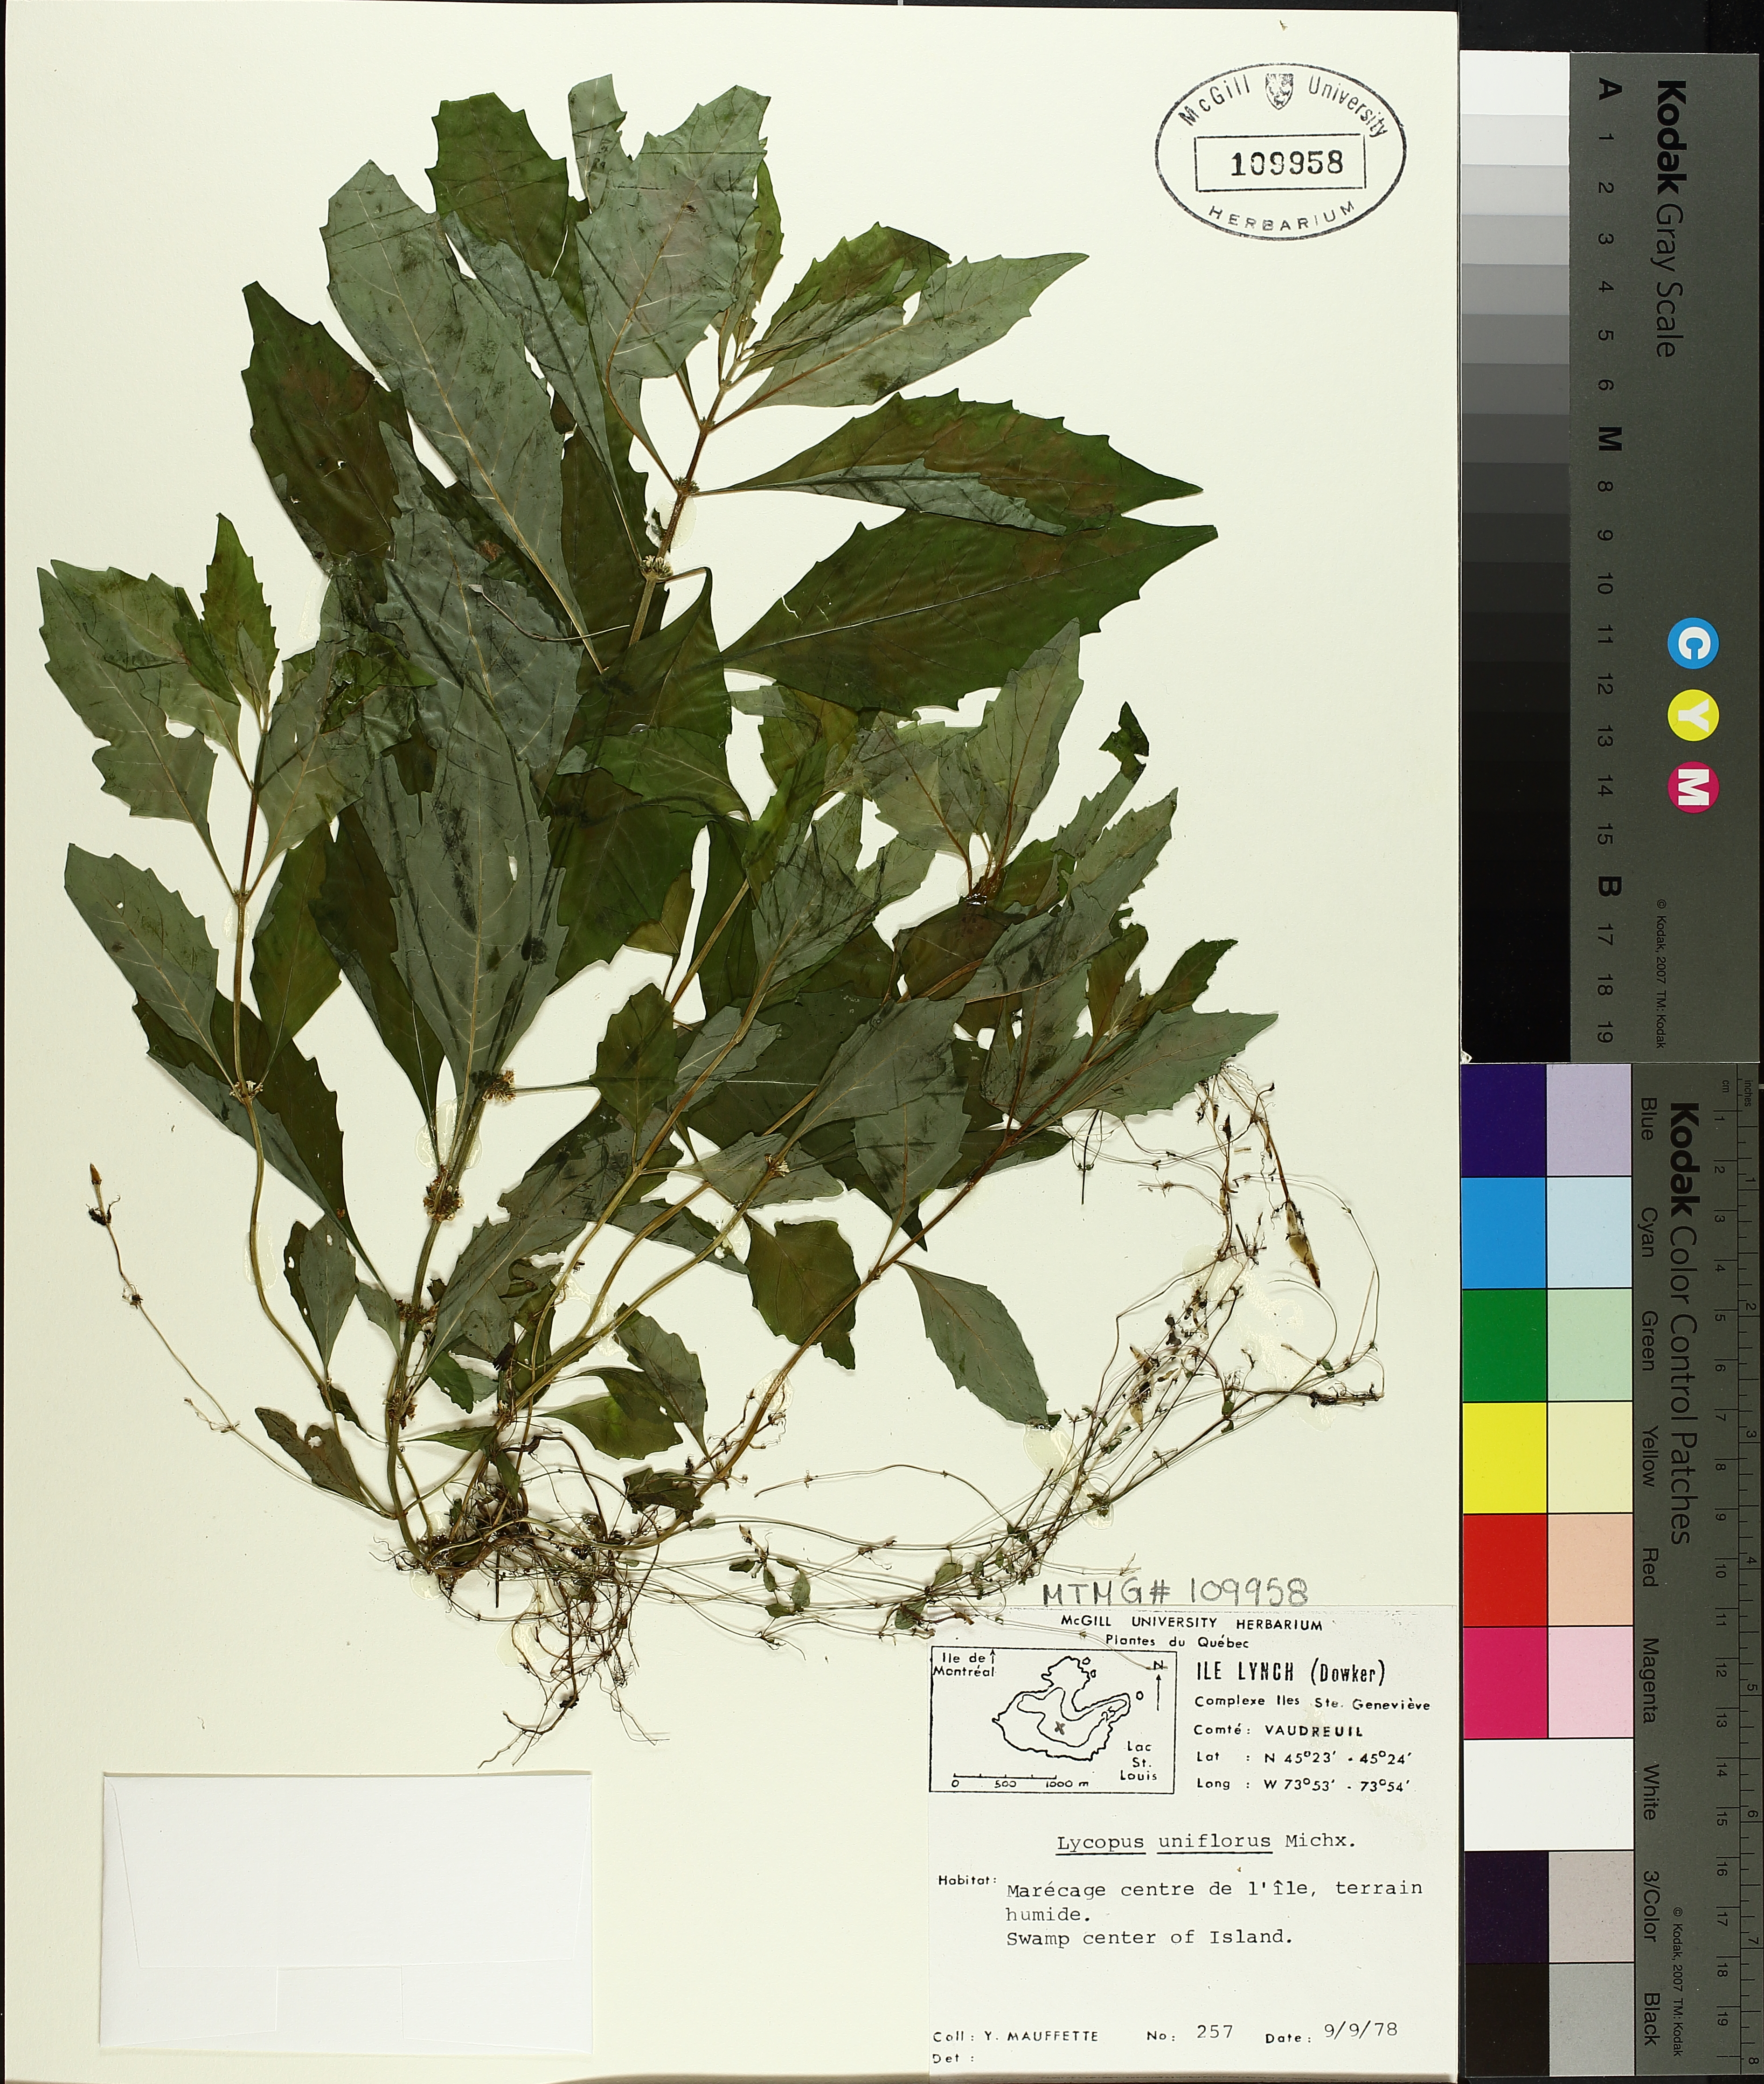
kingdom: Plantae
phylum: Tracheophyta
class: Magnoliopsida
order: Lamiales
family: Lamiaceae
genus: Lycopus
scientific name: Lycopus uniflorus
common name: Northern bugleweed
